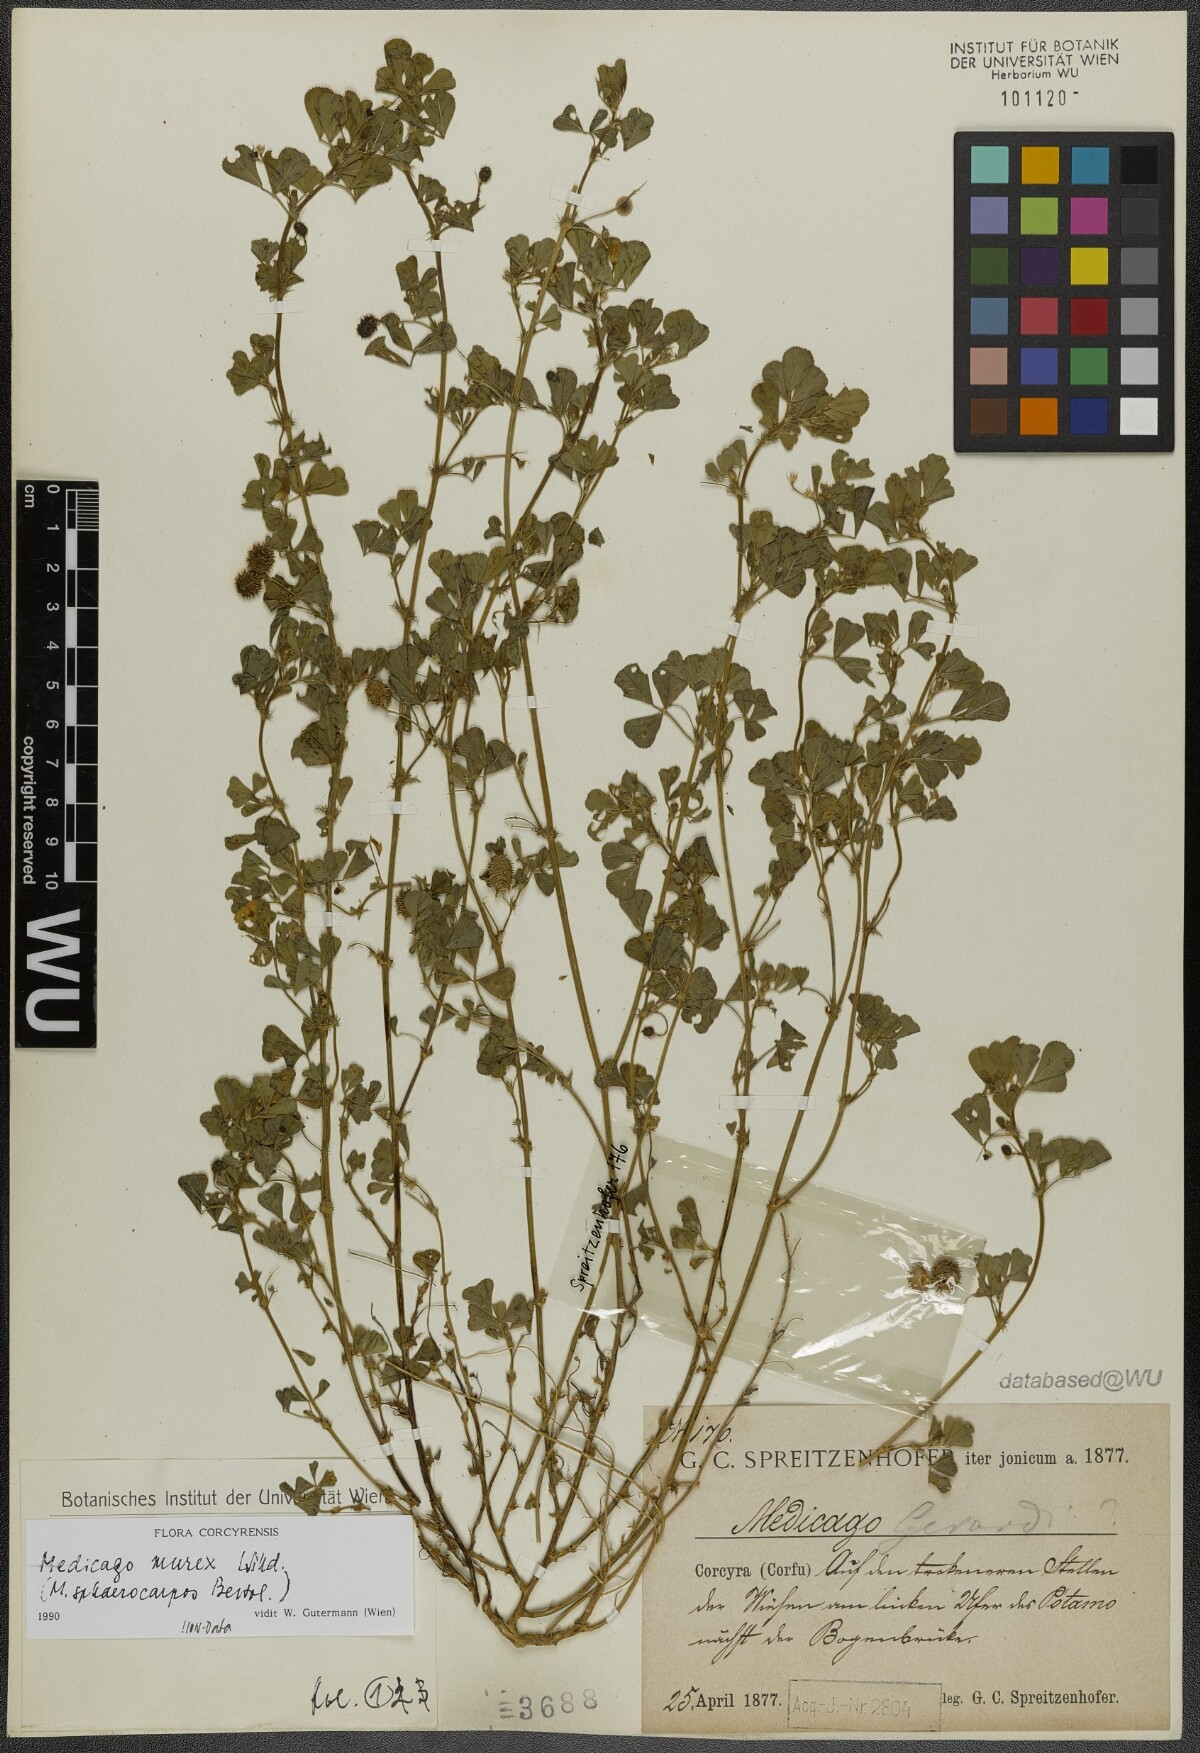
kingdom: Plantae
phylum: Tracheophyta
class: Magnoliopsida
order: Fabales
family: Fabaceae
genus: Medicago
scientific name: Medicago murex
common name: Murex
